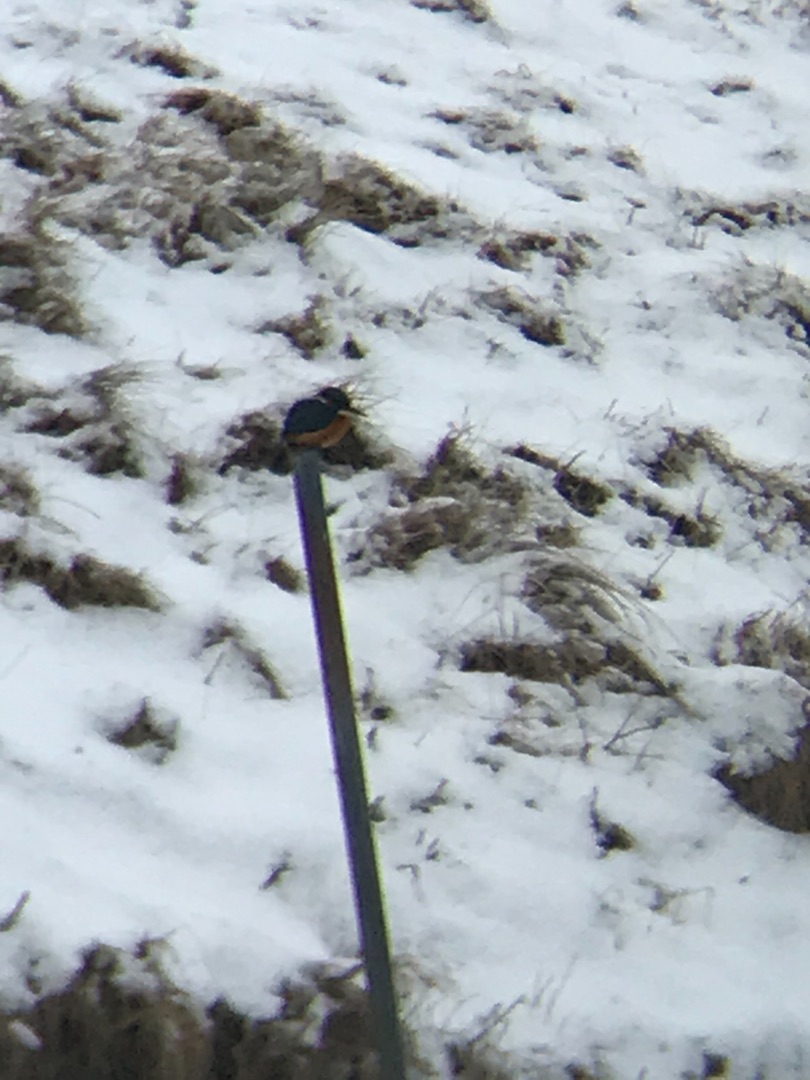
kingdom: Animalia
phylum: Chordata
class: Aves
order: Coraciiformes
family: Alcedinidae
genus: Alcedo
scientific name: Alcedo atthis
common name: Isfugl
